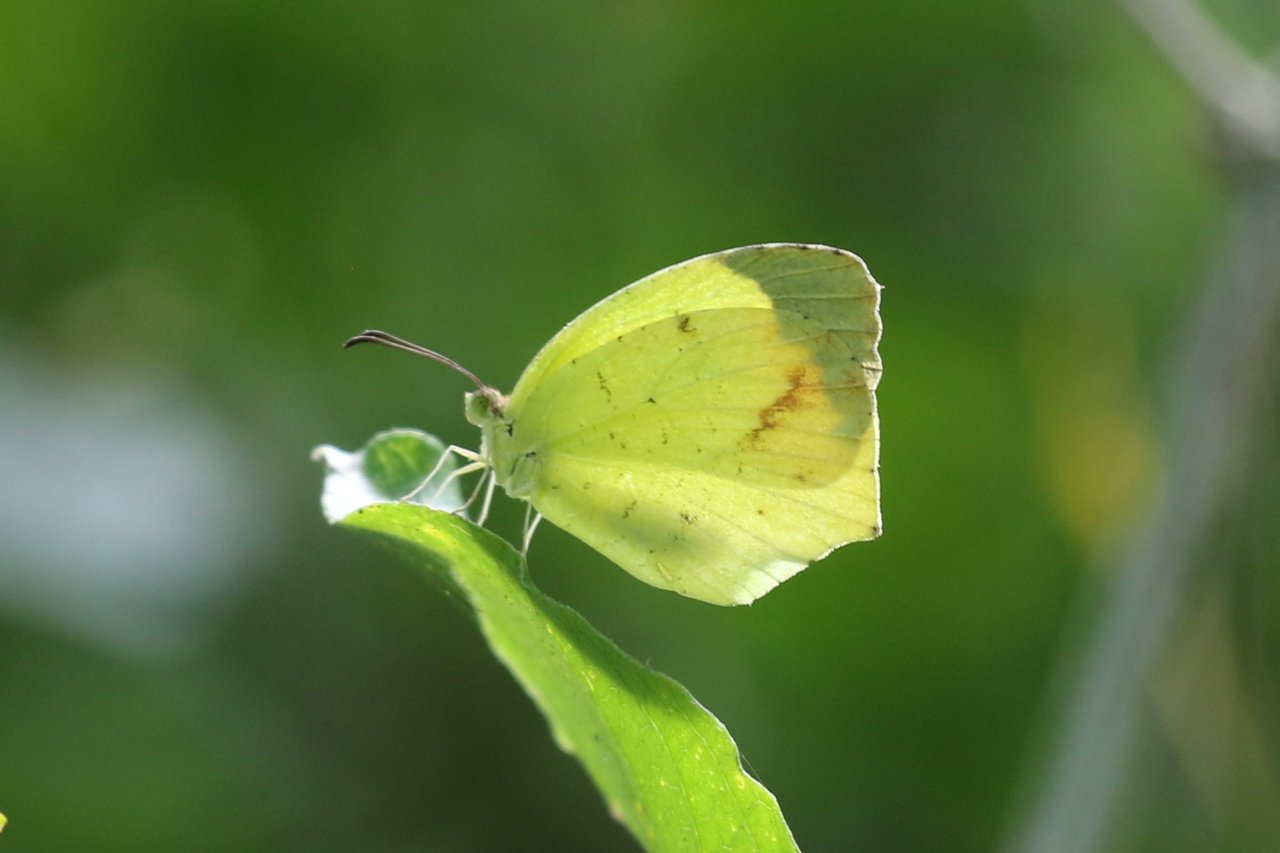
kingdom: Animalia
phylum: Arthropoda
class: Insecta
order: Lepidoptera
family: Pieridae
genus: Eurema
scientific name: Eurema boisduvaliana
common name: Boisduval's Yellow
